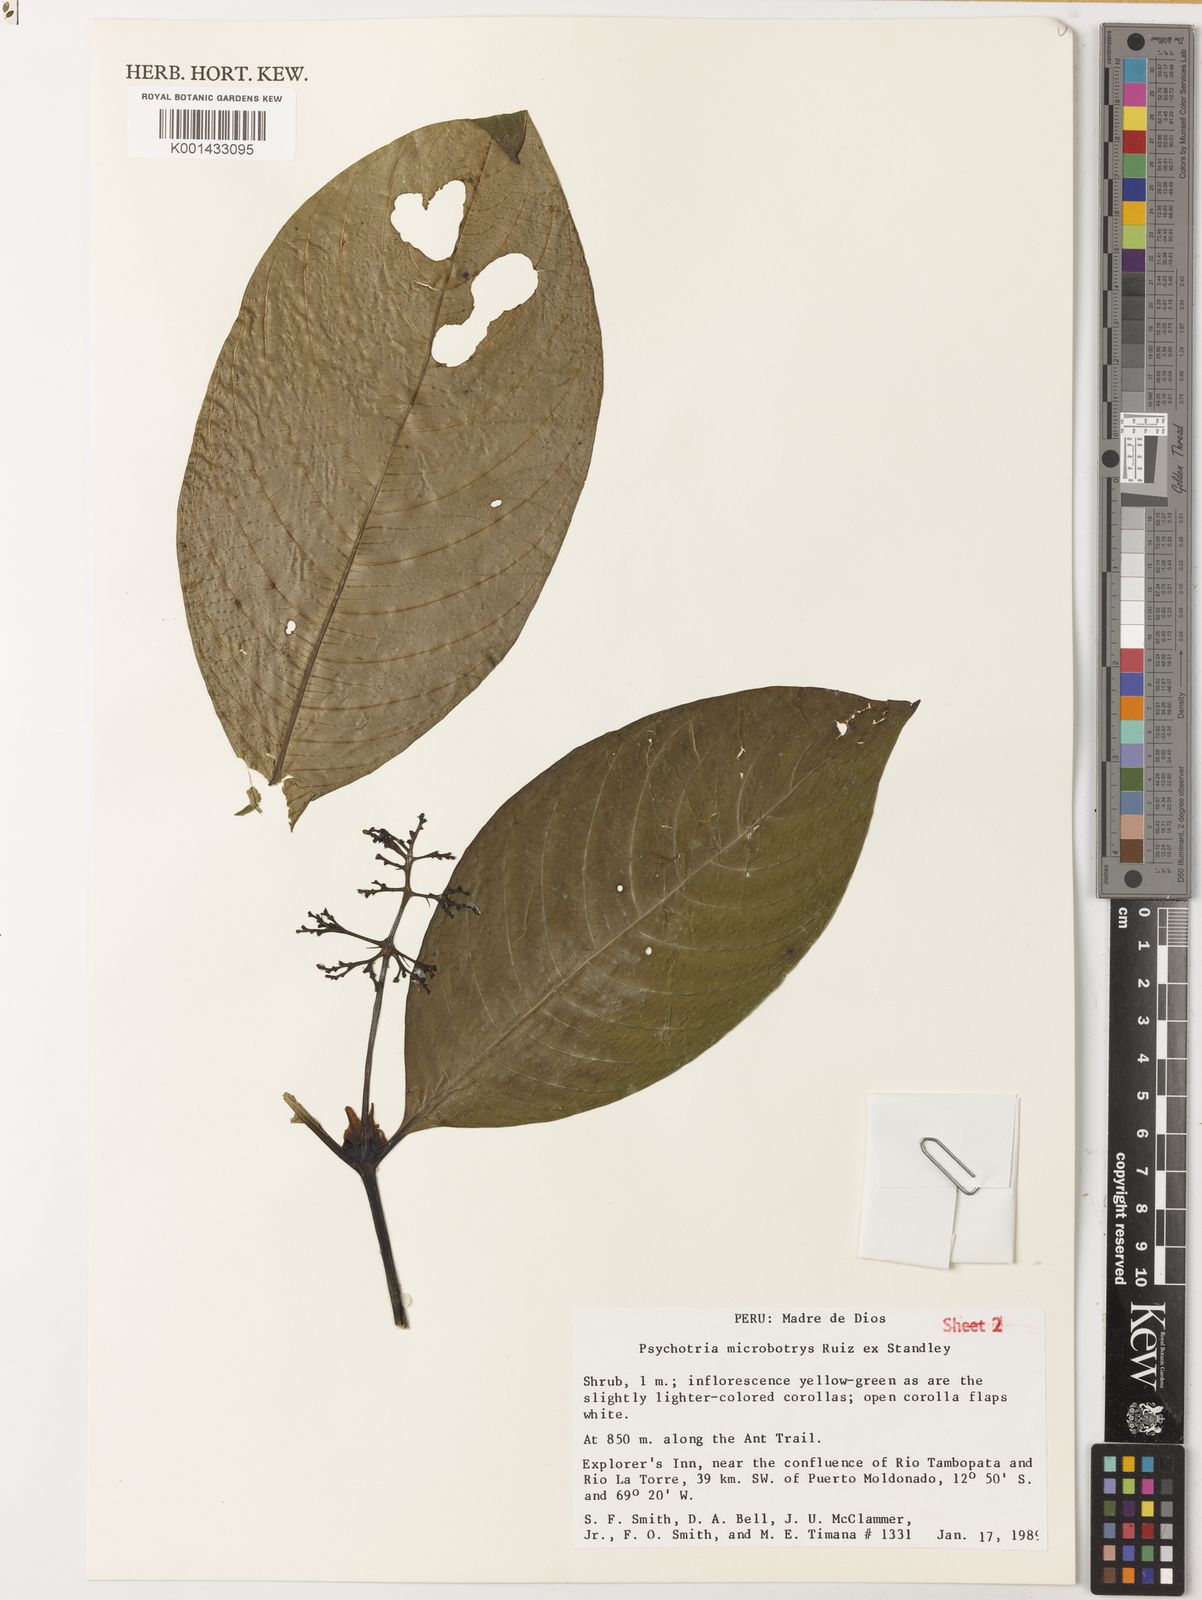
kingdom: Plantae
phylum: Tracheophyta
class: Magnoliopsida
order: Gentianales
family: Rubiaceae
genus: Palicourea
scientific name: Palicourea microbotrys
